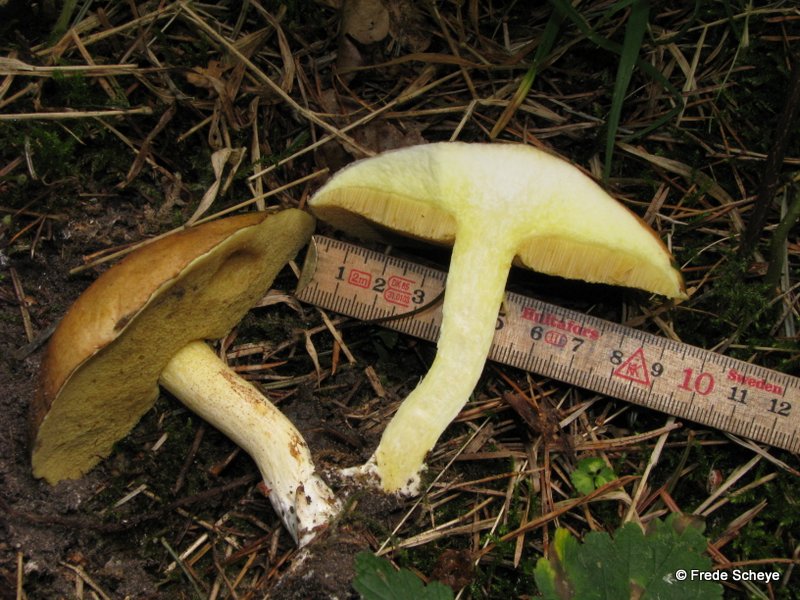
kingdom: Fungi
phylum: Basidiomycota
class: Agaricomycetes
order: Boletales
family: Suillaceae
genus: Suillus
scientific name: Suillus granulatus
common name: kornet slimrørhat
